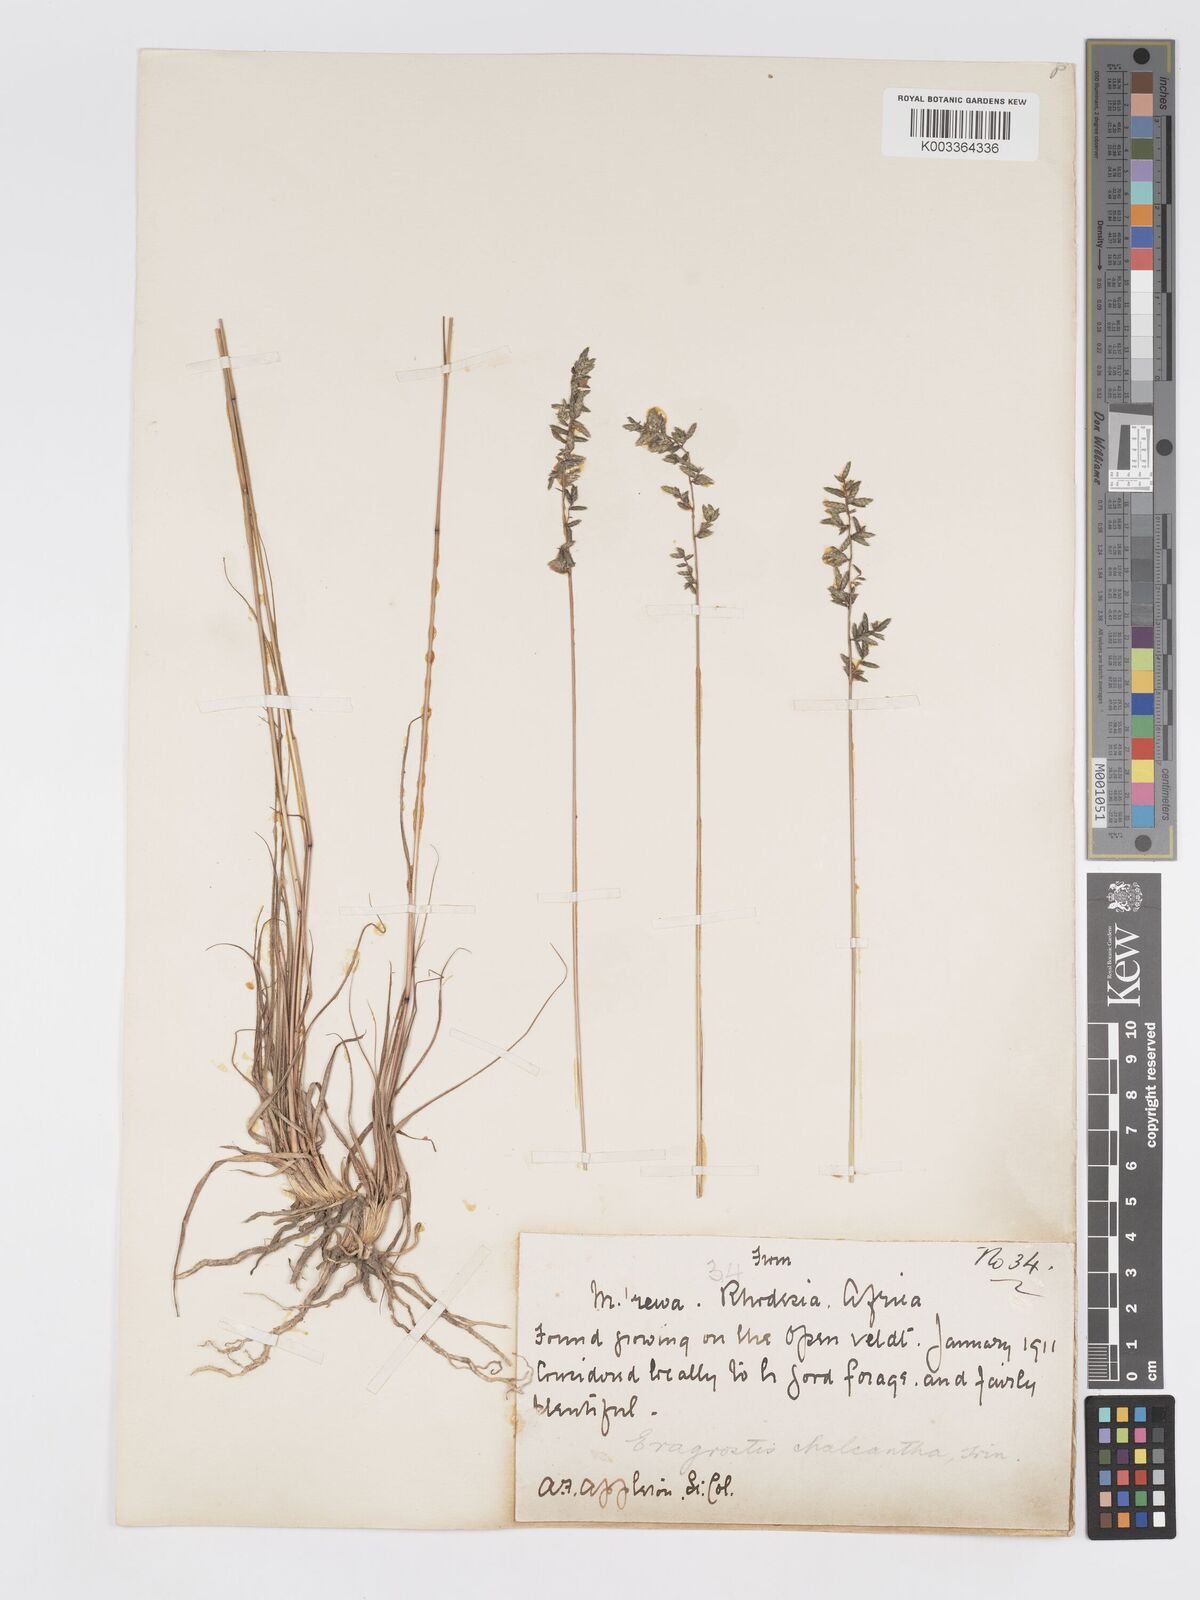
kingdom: Plantae
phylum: Tracheophyta
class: Liliopsida
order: Poales
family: Poaceae
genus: Eragrostis
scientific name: Eragrostis racemosa
